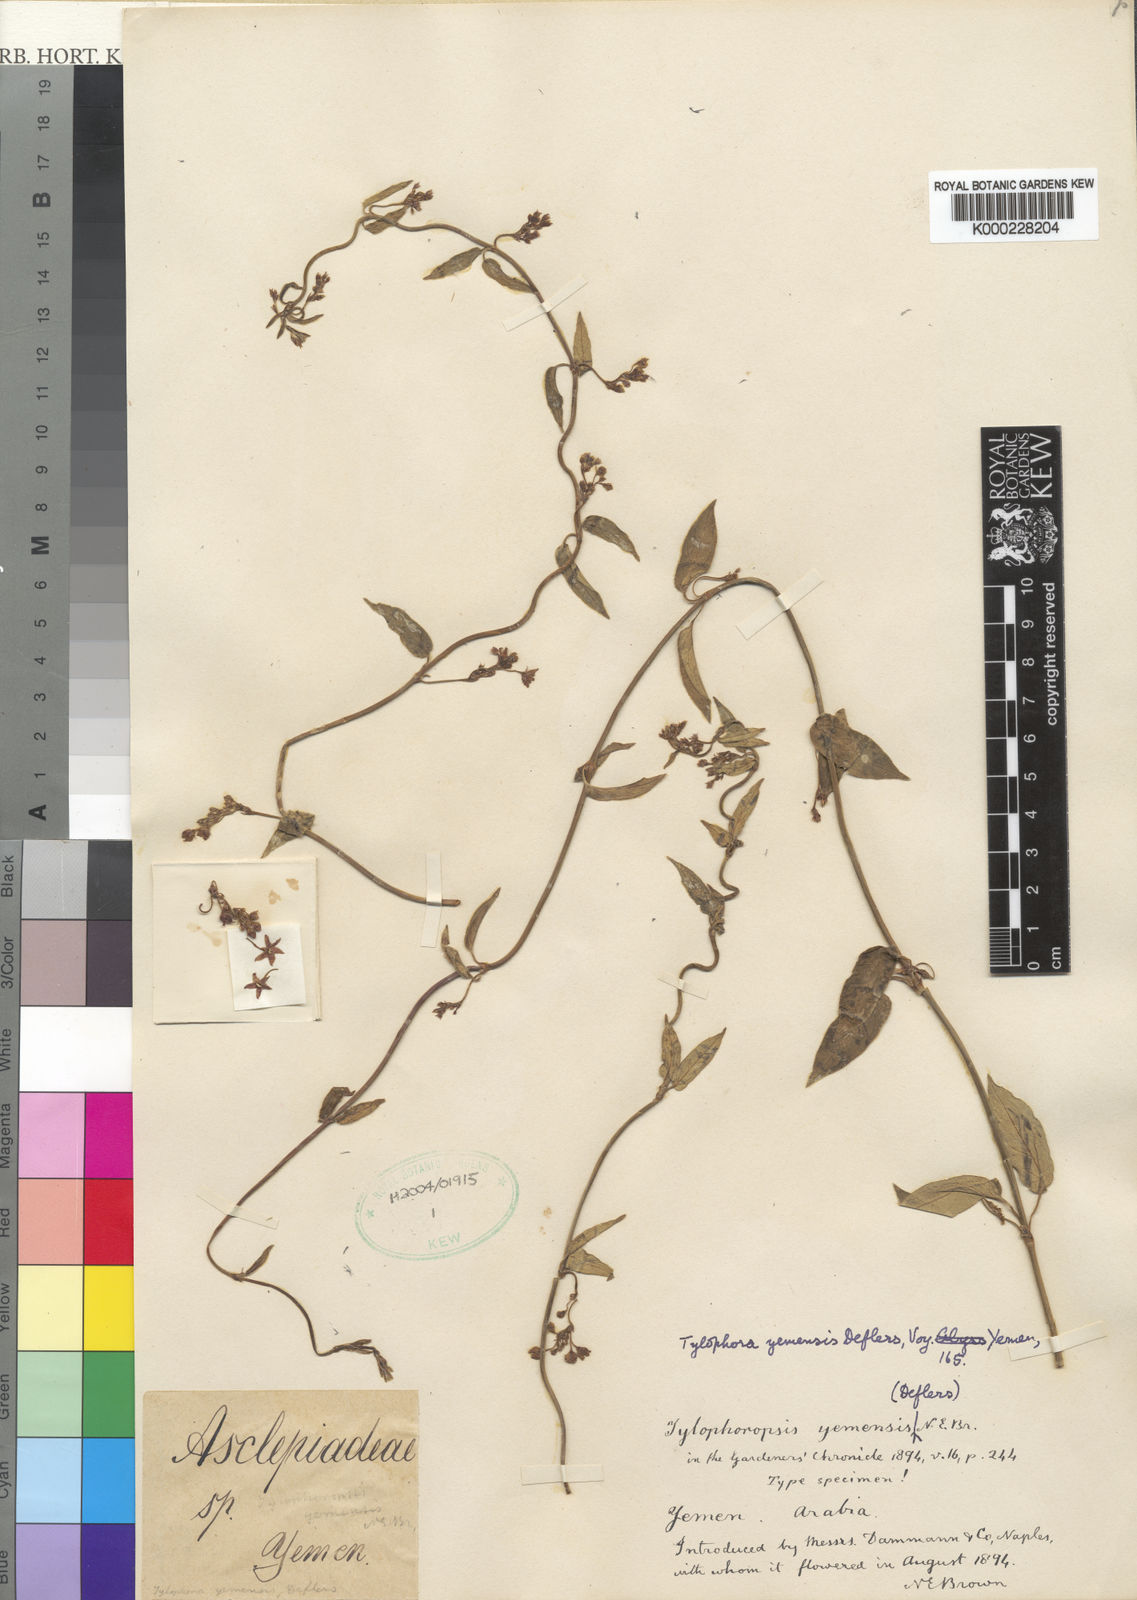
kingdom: Plantae
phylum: Tracheophyta
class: Magnoliopsida
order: Gentianales
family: Apocynaceae
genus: Vincetoxicum
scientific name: Vincetoxicum heterophyllum
